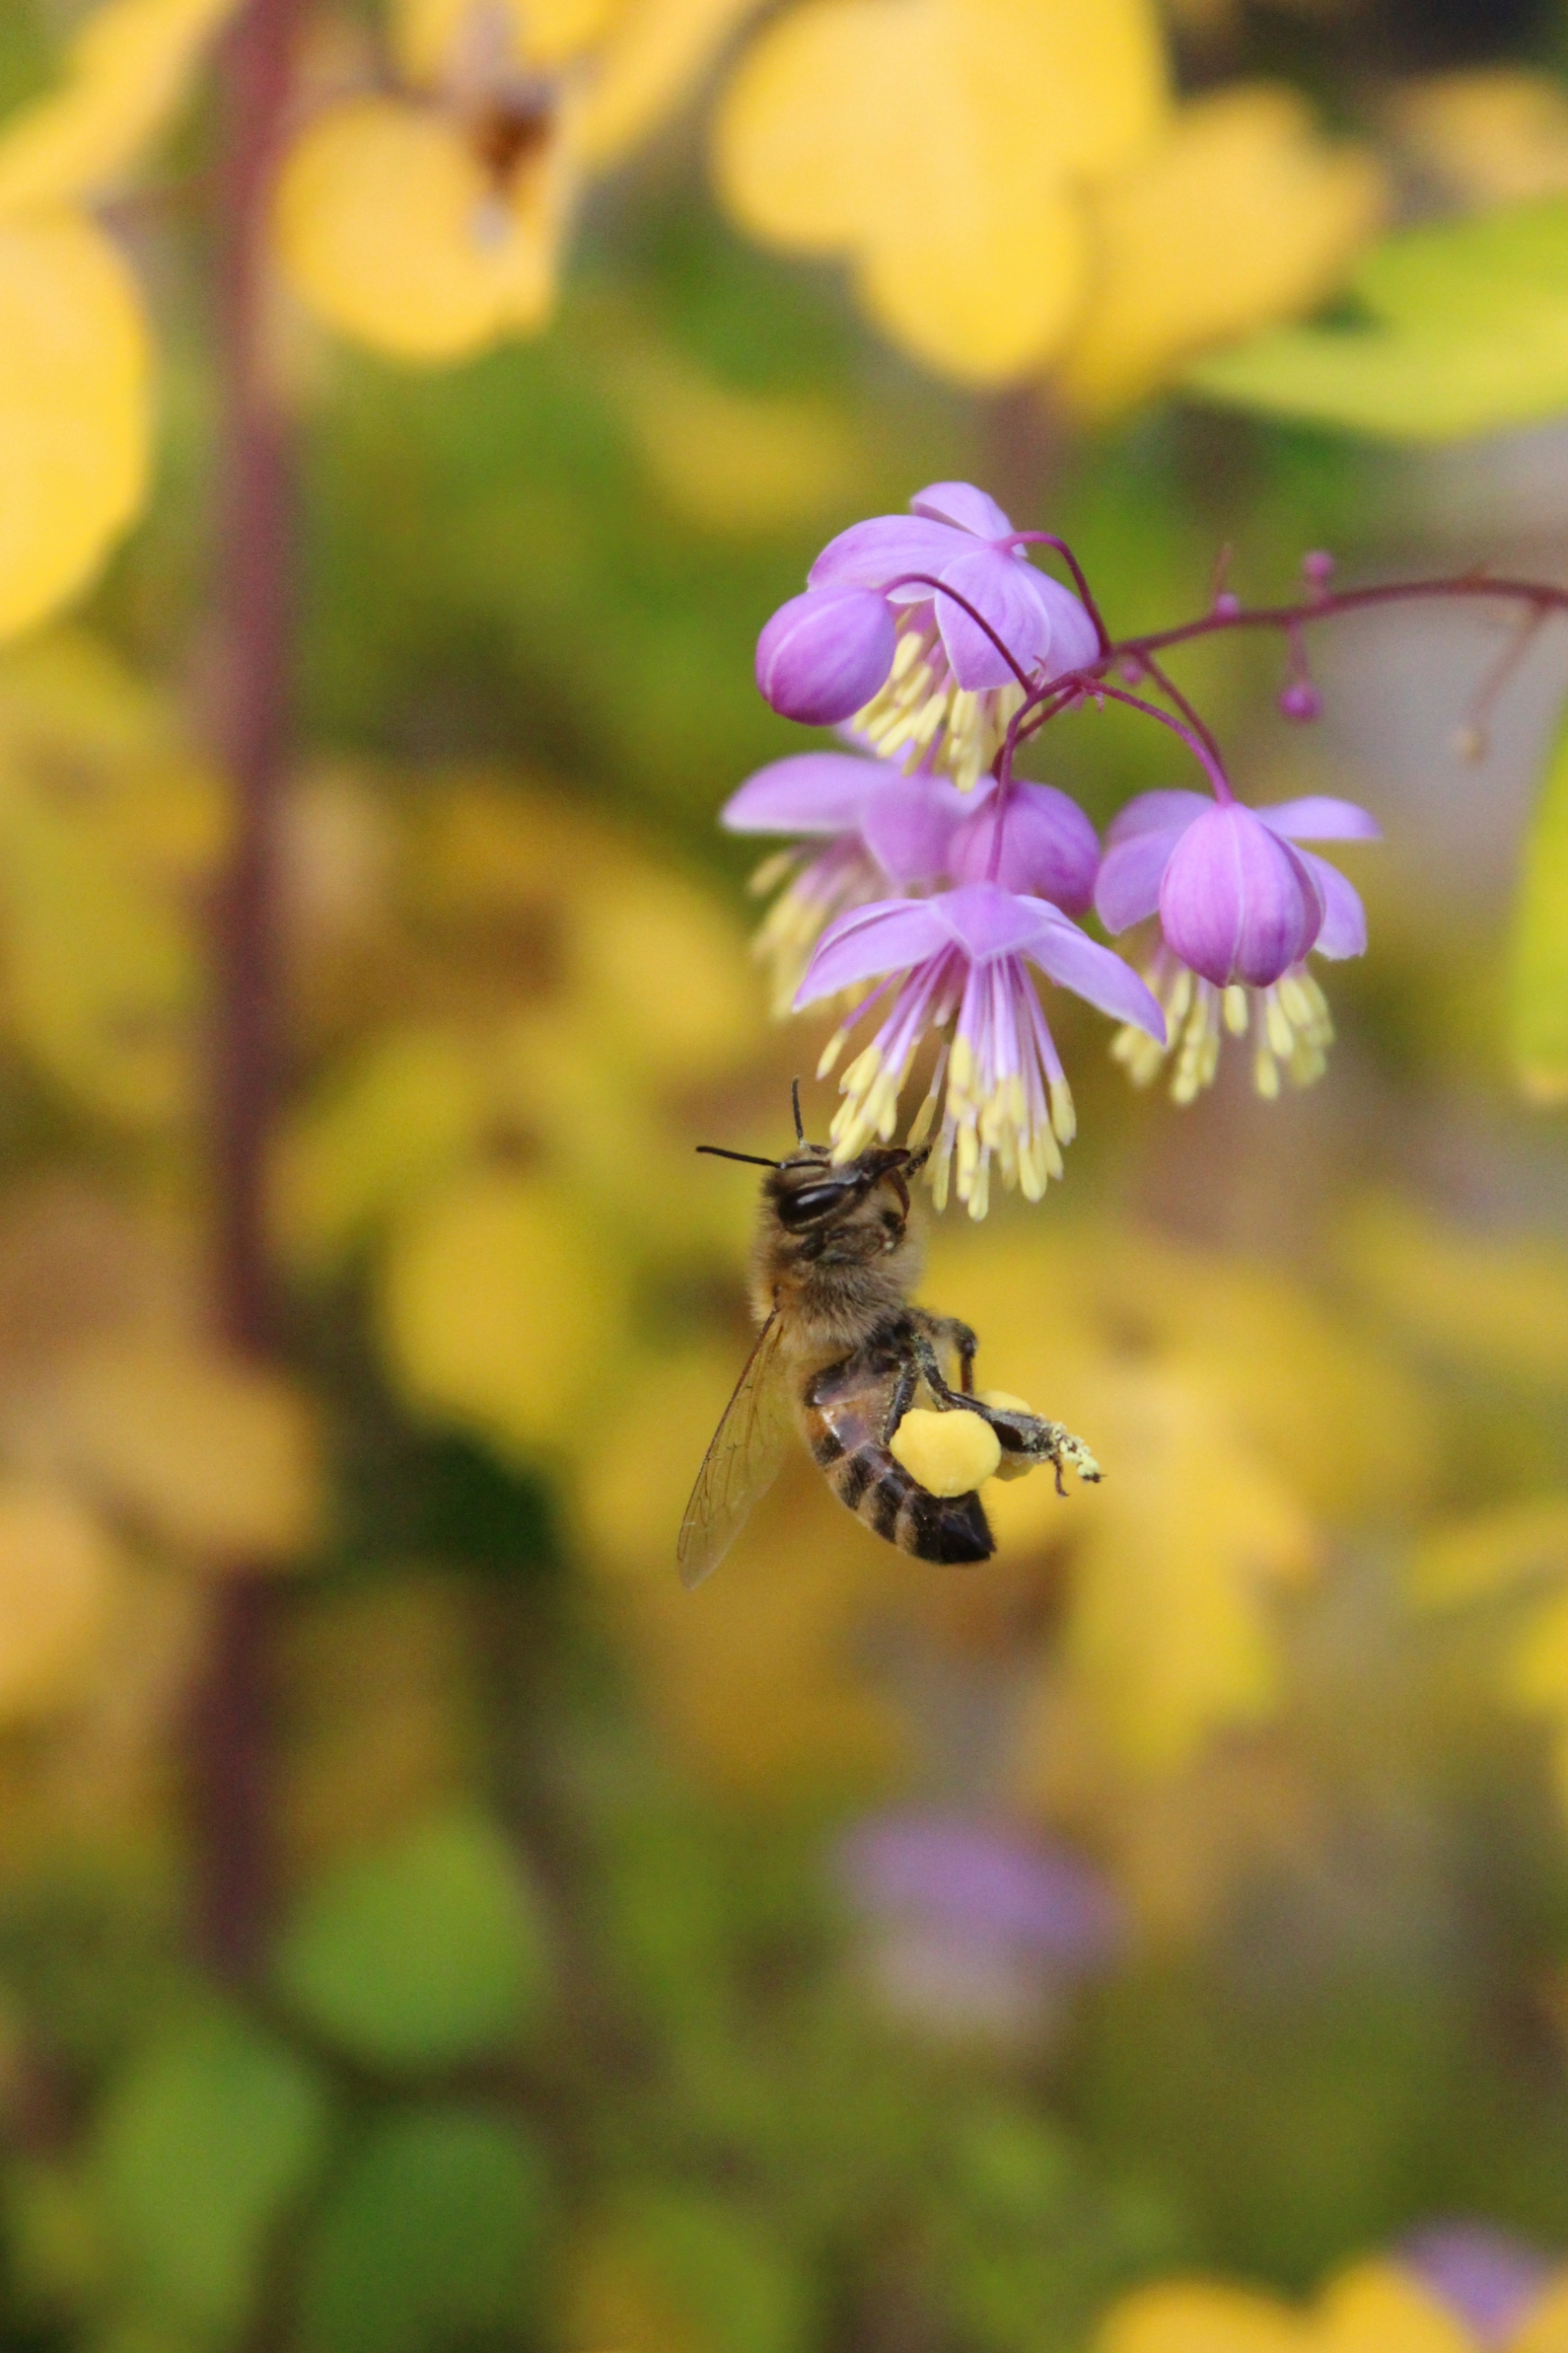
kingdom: Animalia
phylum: Arthropoda
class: Insecta
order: Hymenoptera
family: Apidae
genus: Apis
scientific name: Apis
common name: Honningbier
